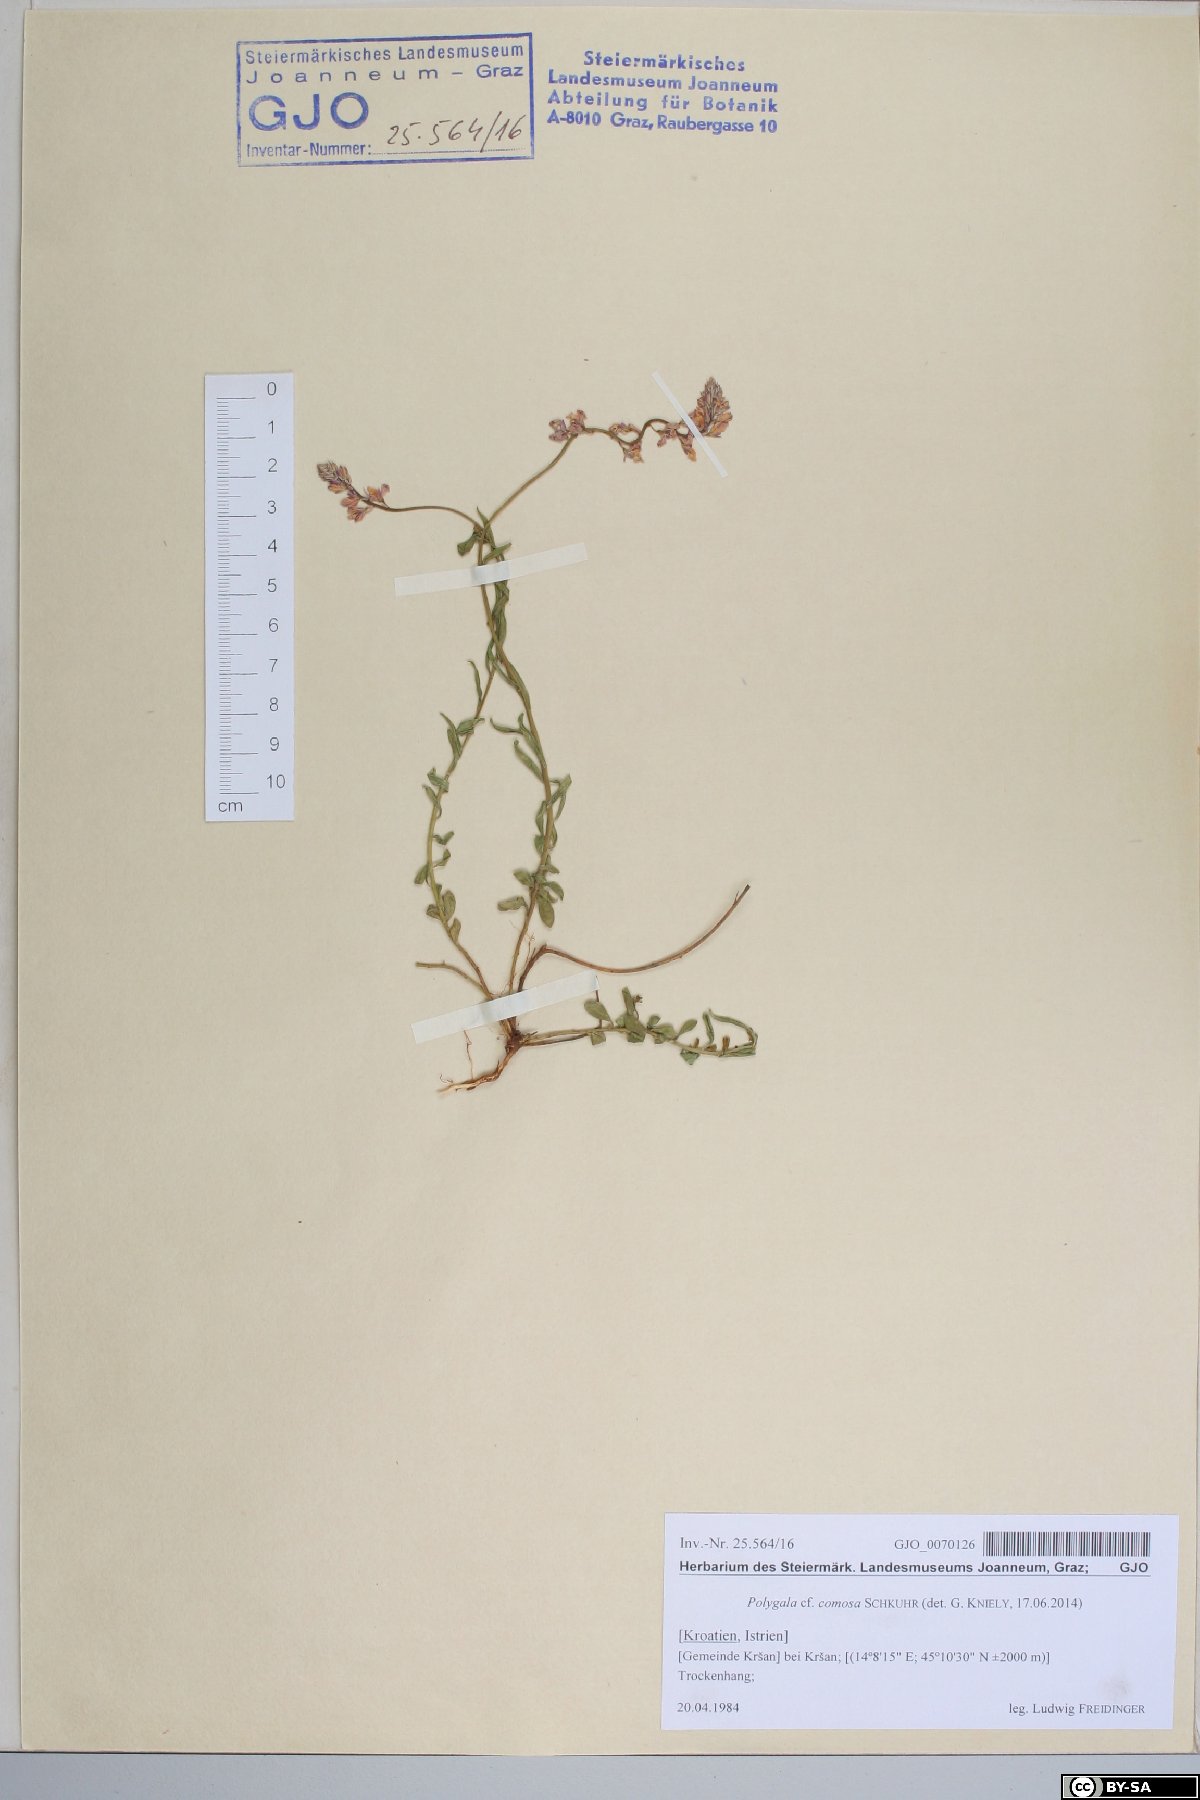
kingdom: Plantae
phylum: Tracheophyta
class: Magnoliopsida
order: Fabales
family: Polygalaceae
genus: Polygala
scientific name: Polygala comosa
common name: Tufted milkwort
